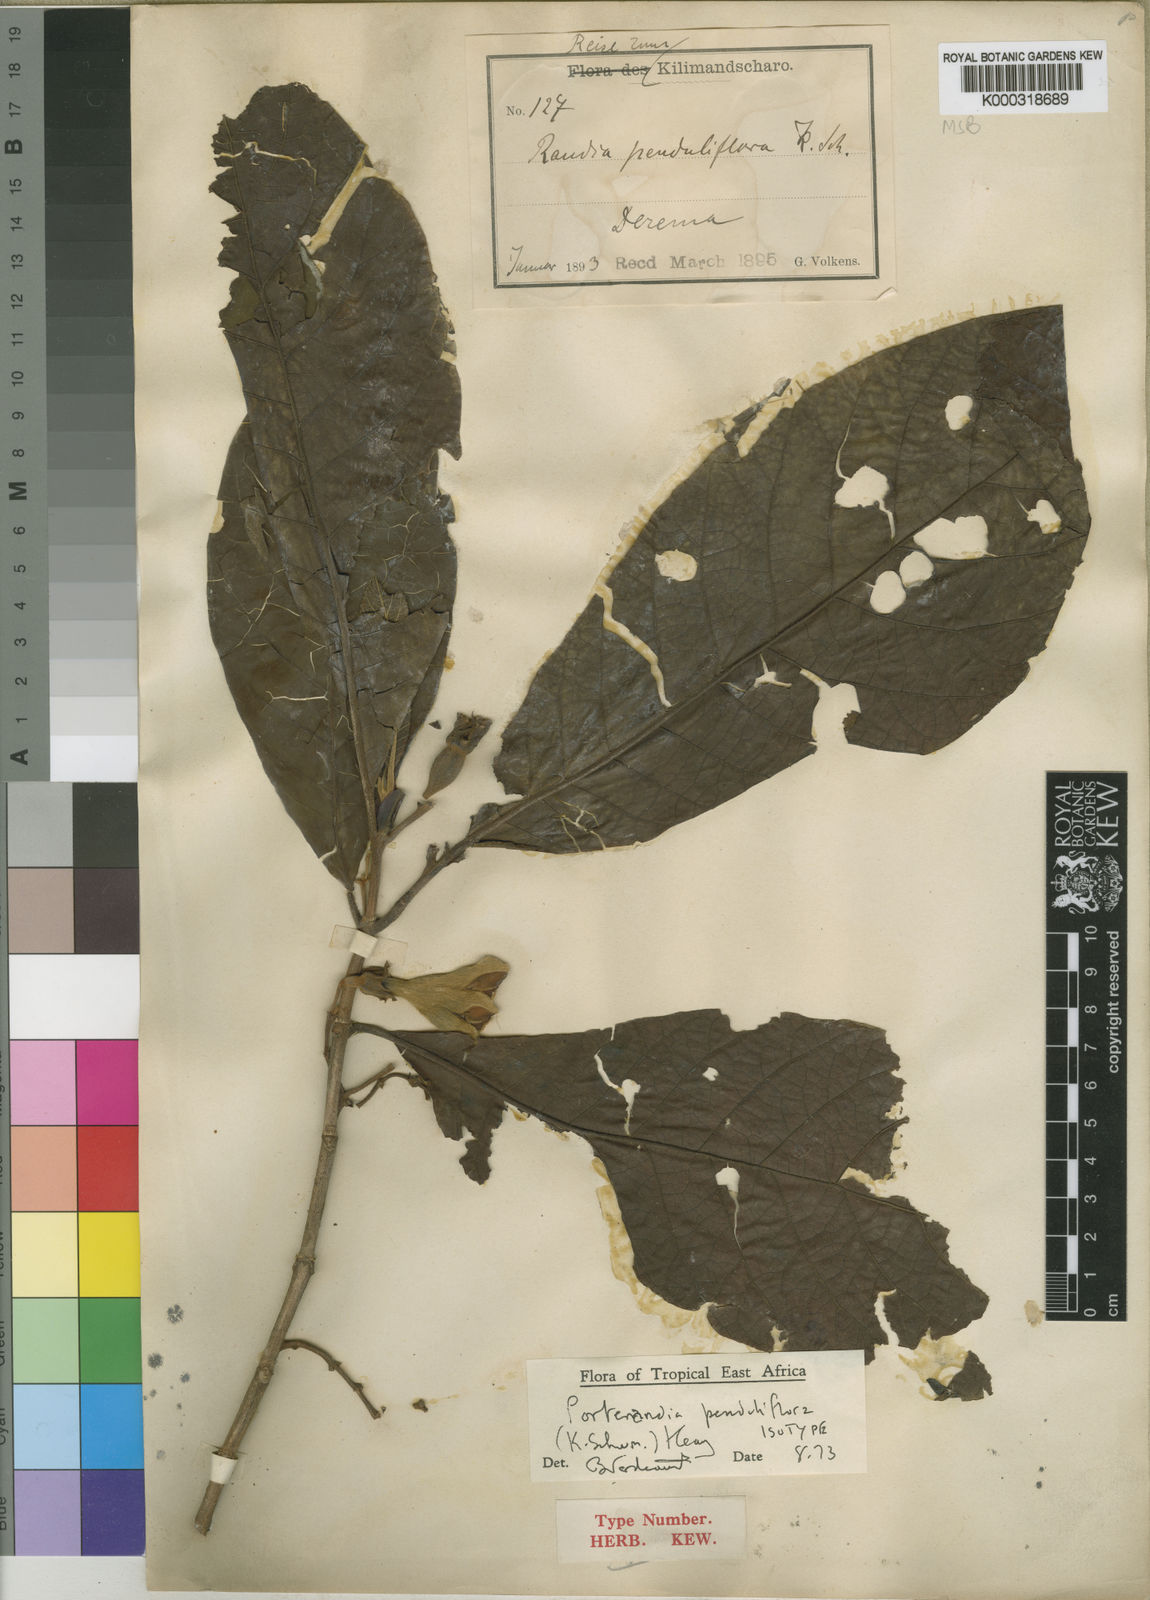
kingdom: Plantae
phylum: Tracheophyta
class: Magnoliopsida
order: Gentianales
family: Rubiaceae
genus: Aoranthe
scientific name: Aoranthe penduliflora
